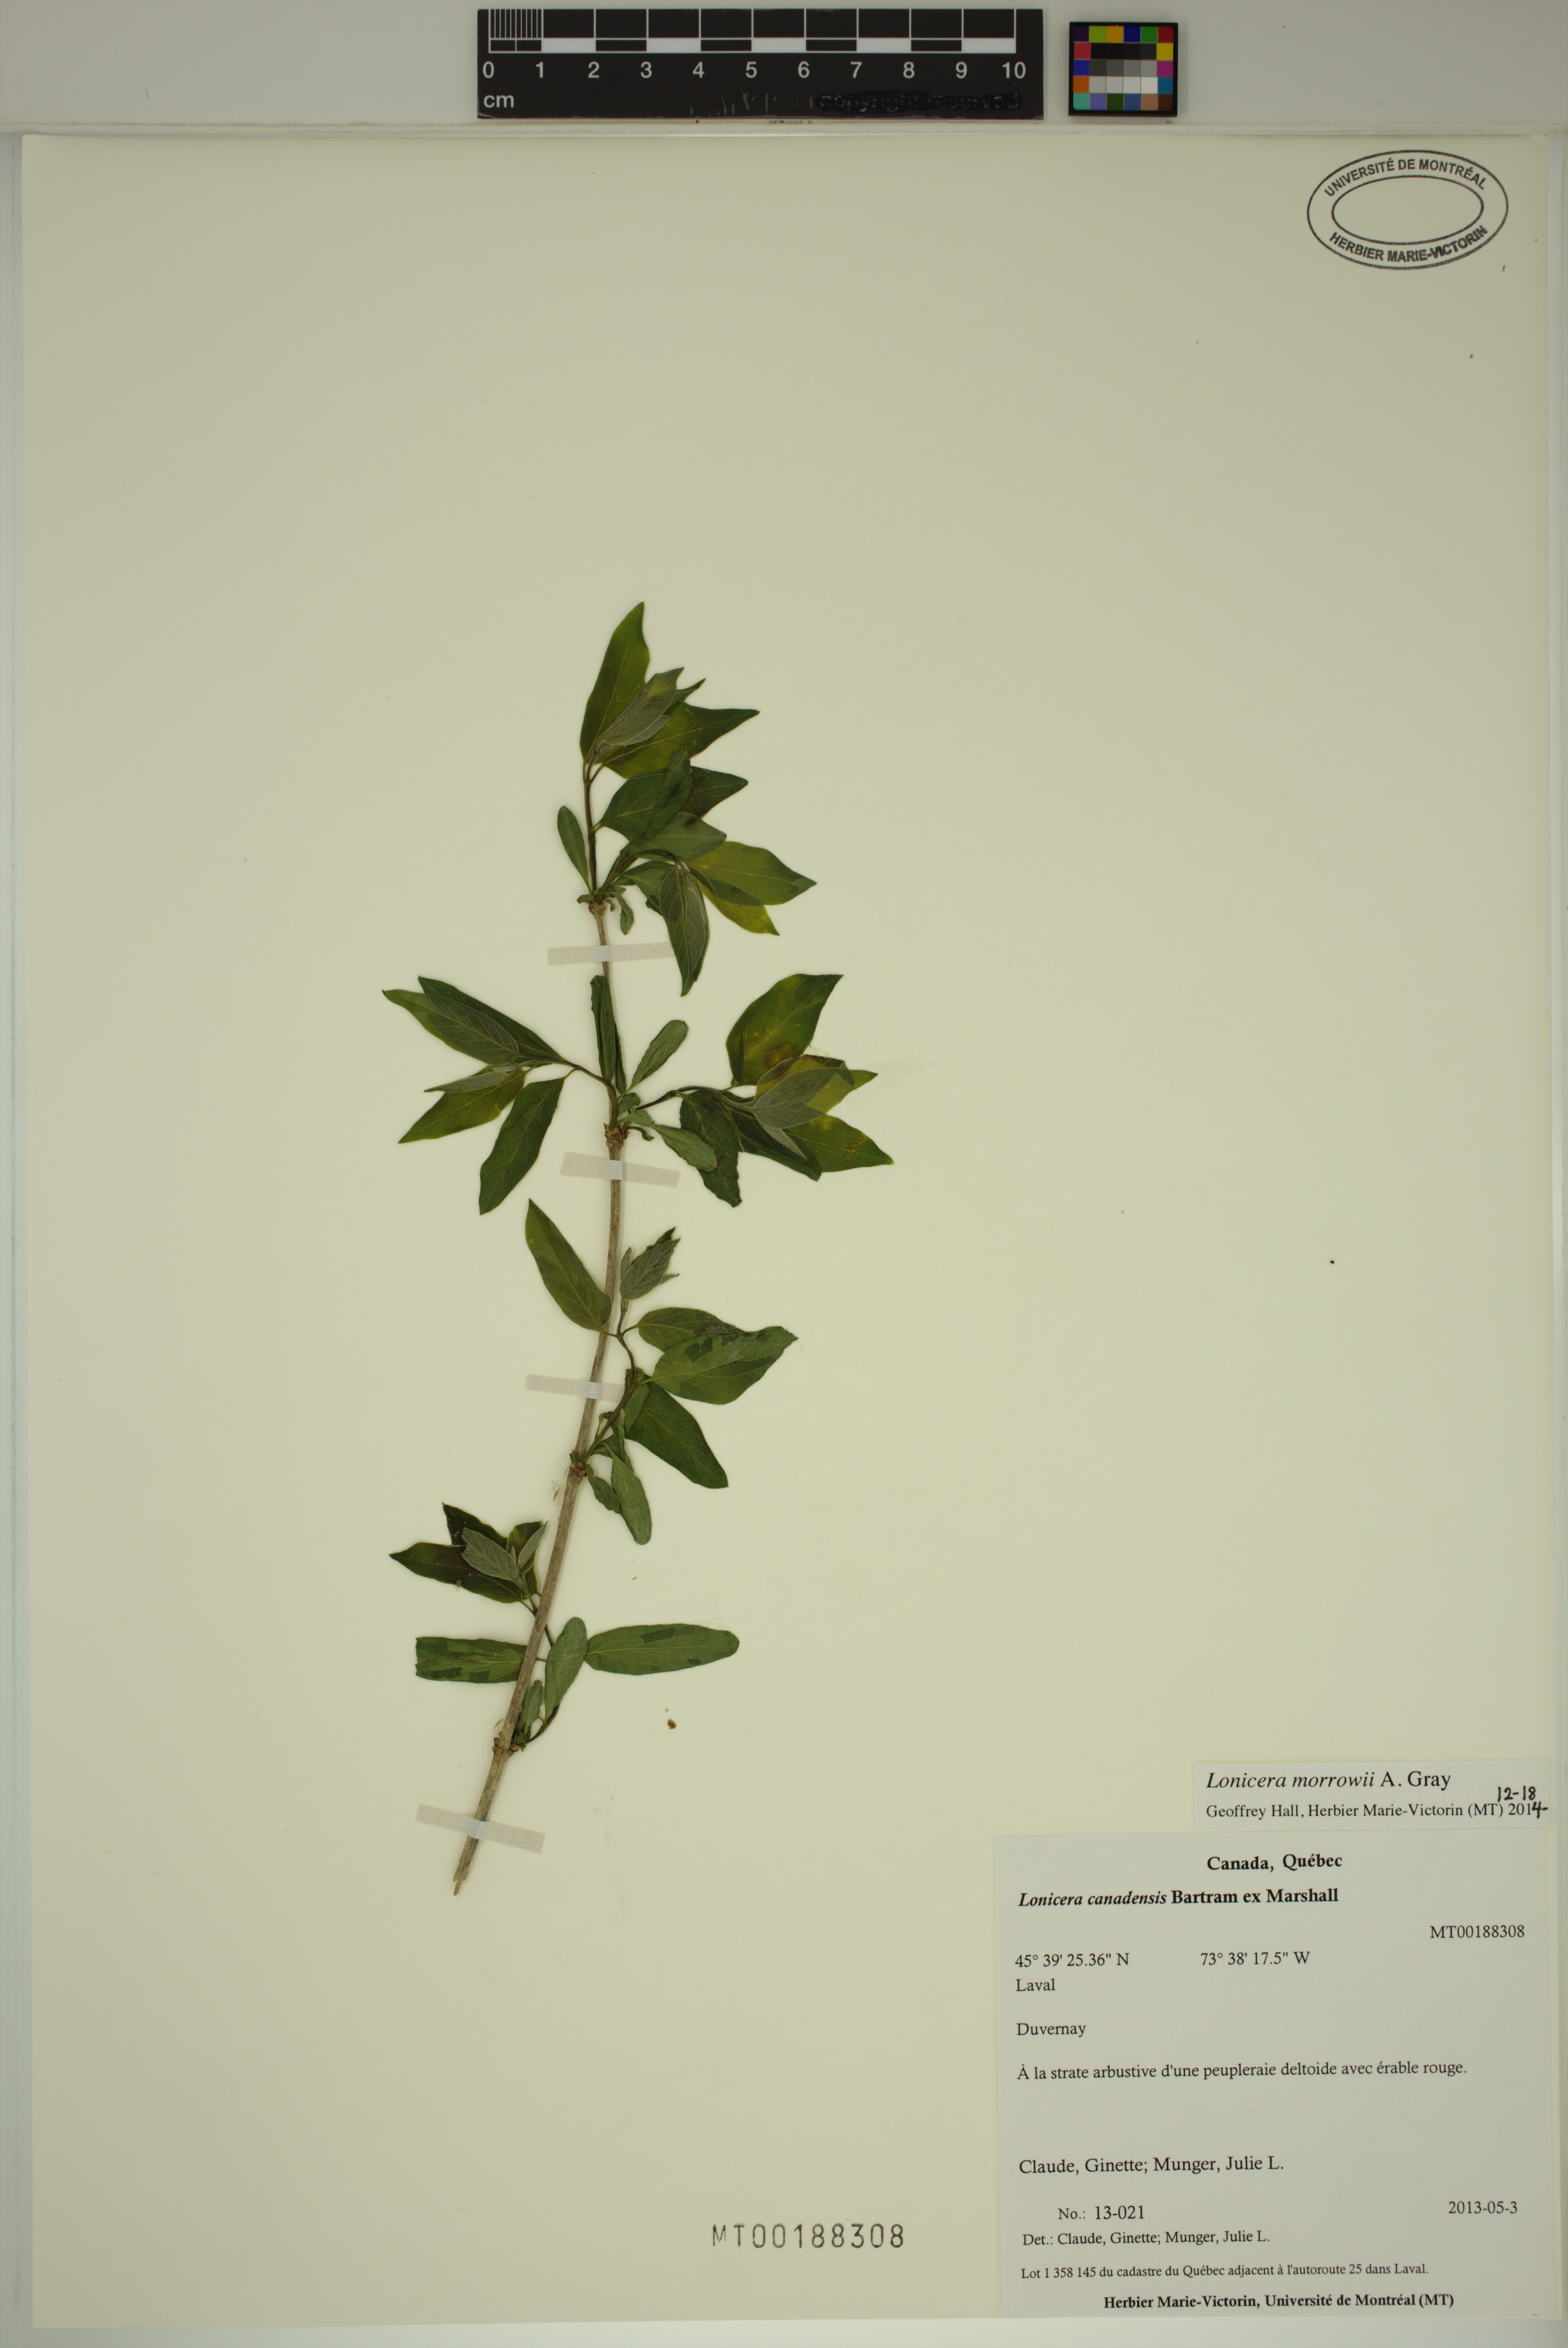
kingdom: Plantae
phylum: Tracheophyta
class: Magnoliopsida
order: Dipsacales
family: Caprifoliaceae
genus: Lonicera
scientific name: Lonicera morrowii
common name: Morrow's honeysuckle
